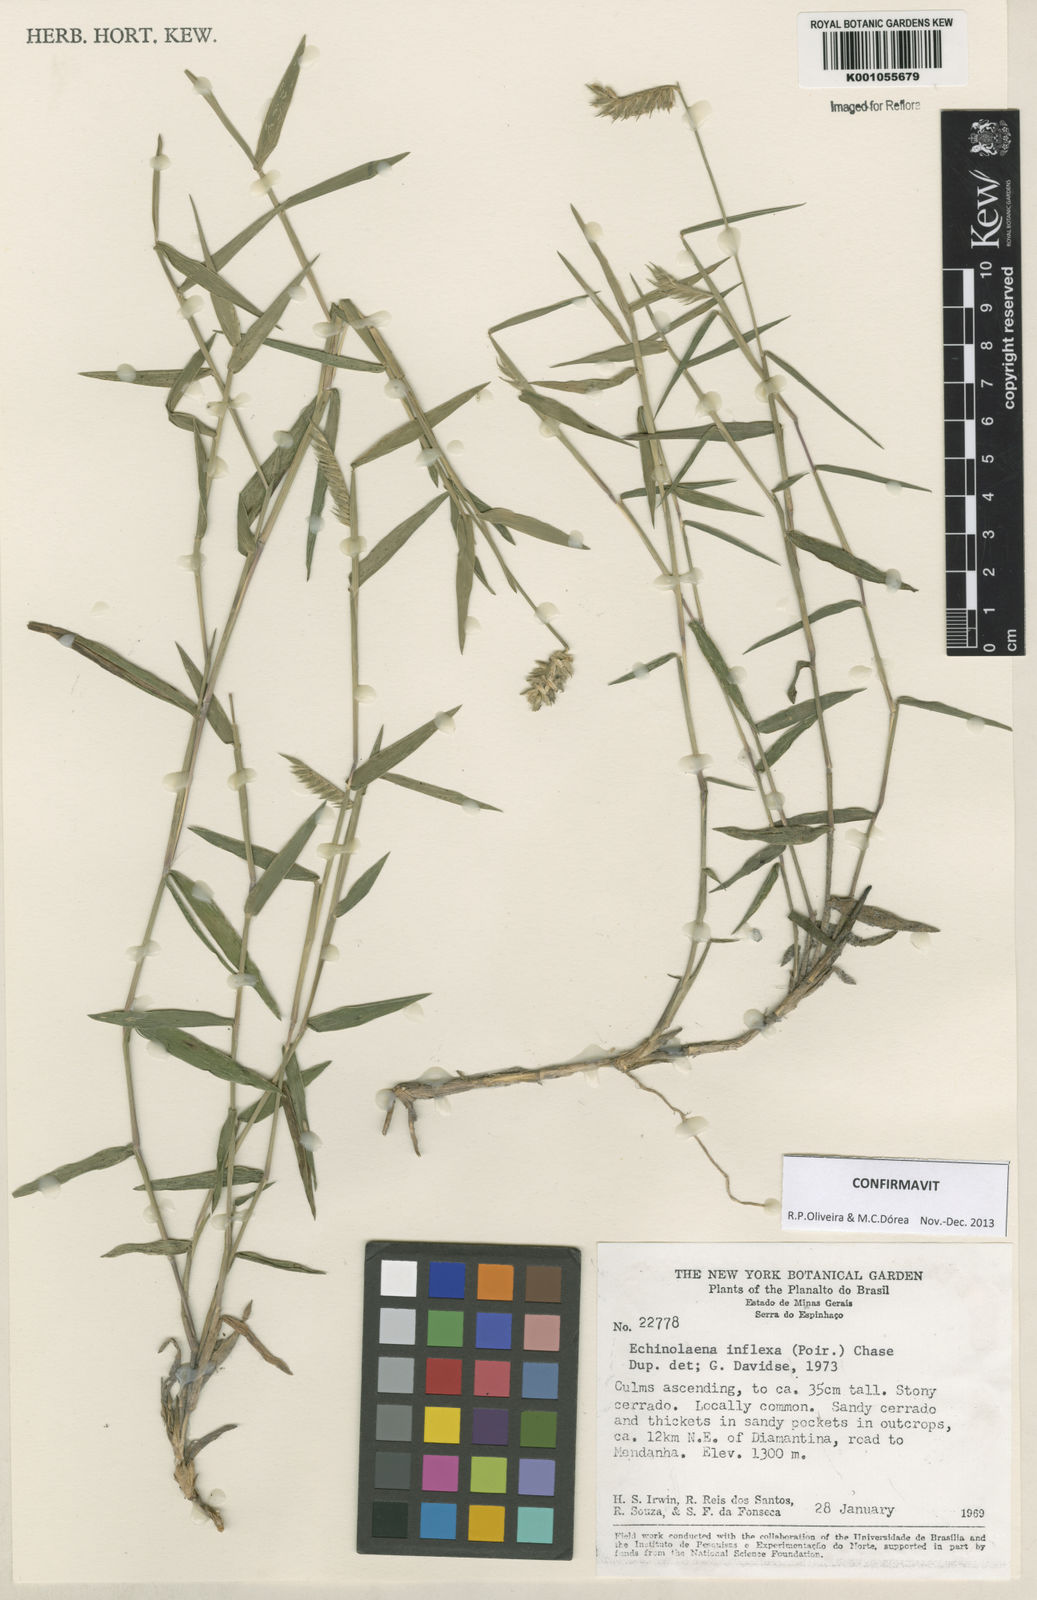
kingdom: Plantae
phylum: Tracheophyta
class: Liliopsida
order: Poales
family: Poaceae
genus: Echinolaena
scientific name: Echinolaena inflexa
